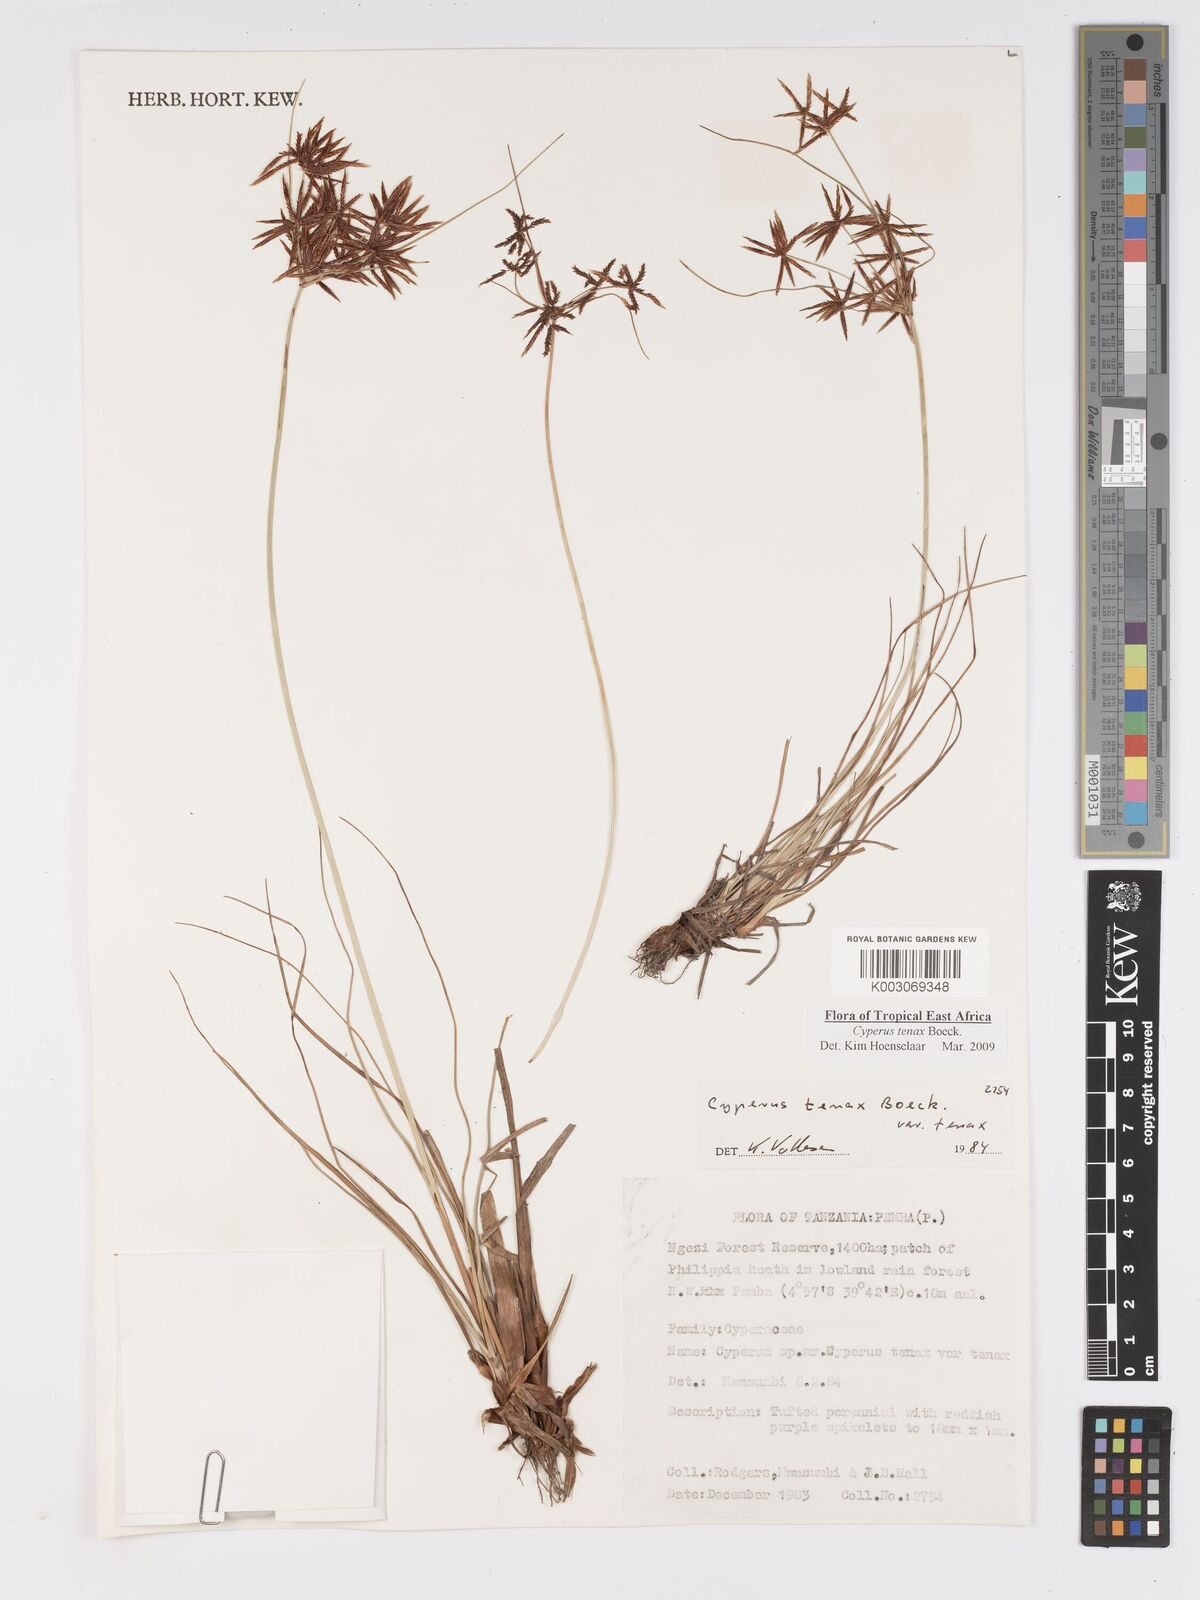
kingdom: Plantae
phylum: Tracheophyta
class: Liliopsida
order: Poales
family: Cyperaceae
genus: Cyperus
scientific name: Cyperus tenax
